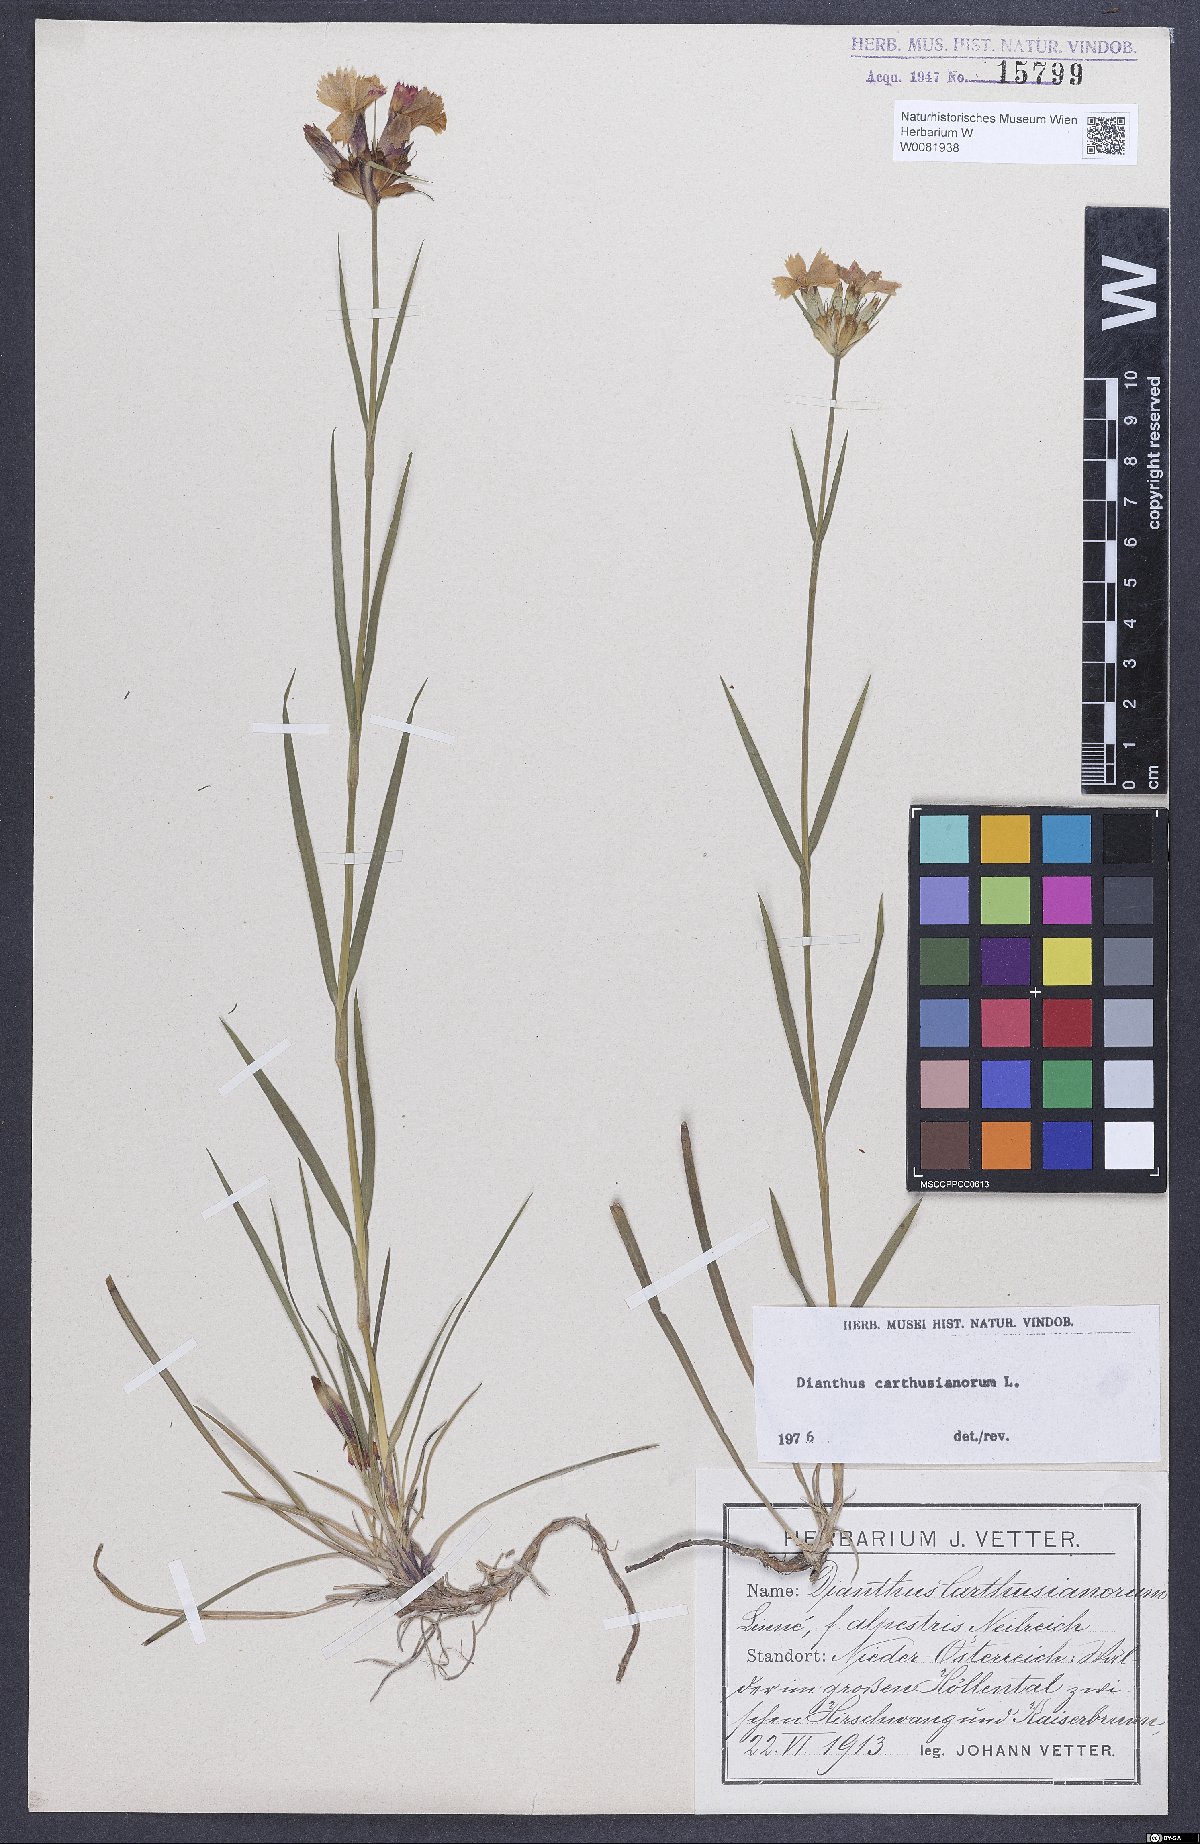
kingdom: Plantae
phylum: Tracheophyta
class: Magnoliopsida
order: Caryophyllales
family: Caryophyllaceae
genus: Dianthus
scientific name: Dianthus carthusianorum
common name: Carthusian pink
